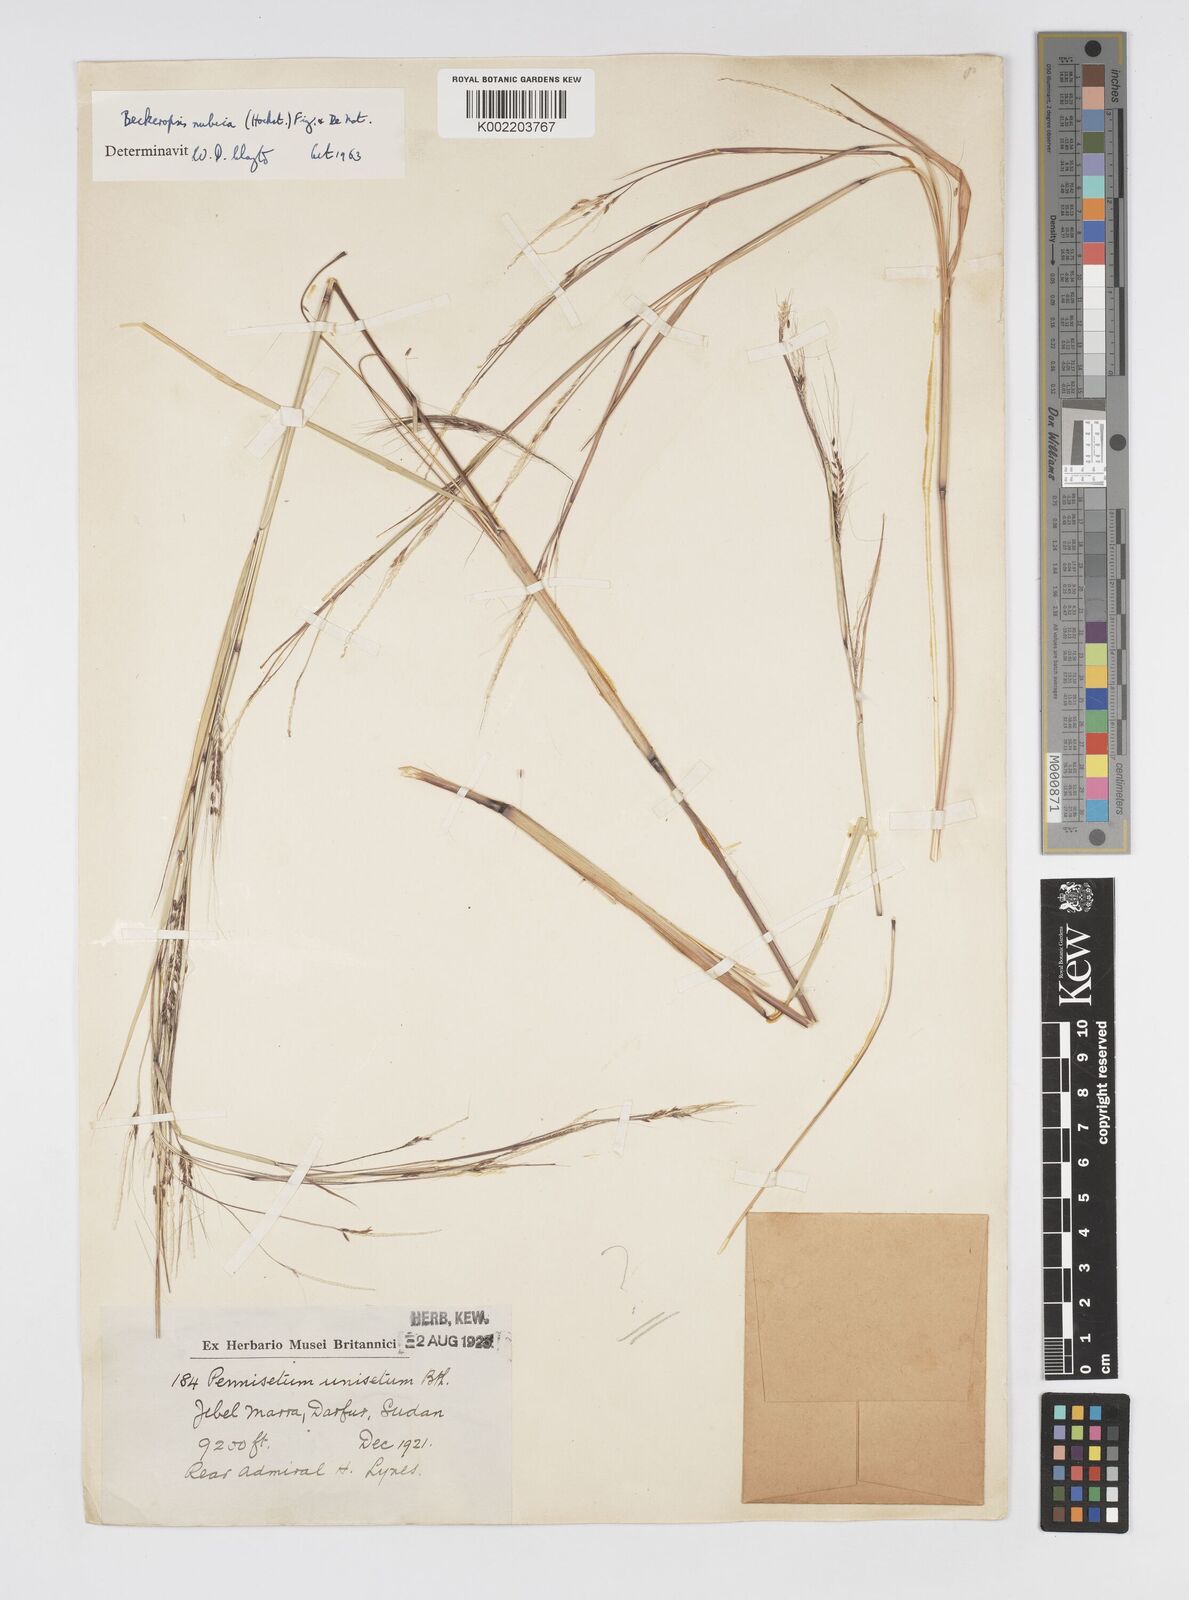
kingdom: Plantae
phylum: Tracheophyta
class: Liliopsida
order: Poales
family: Poaceae
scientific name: Poaceae
